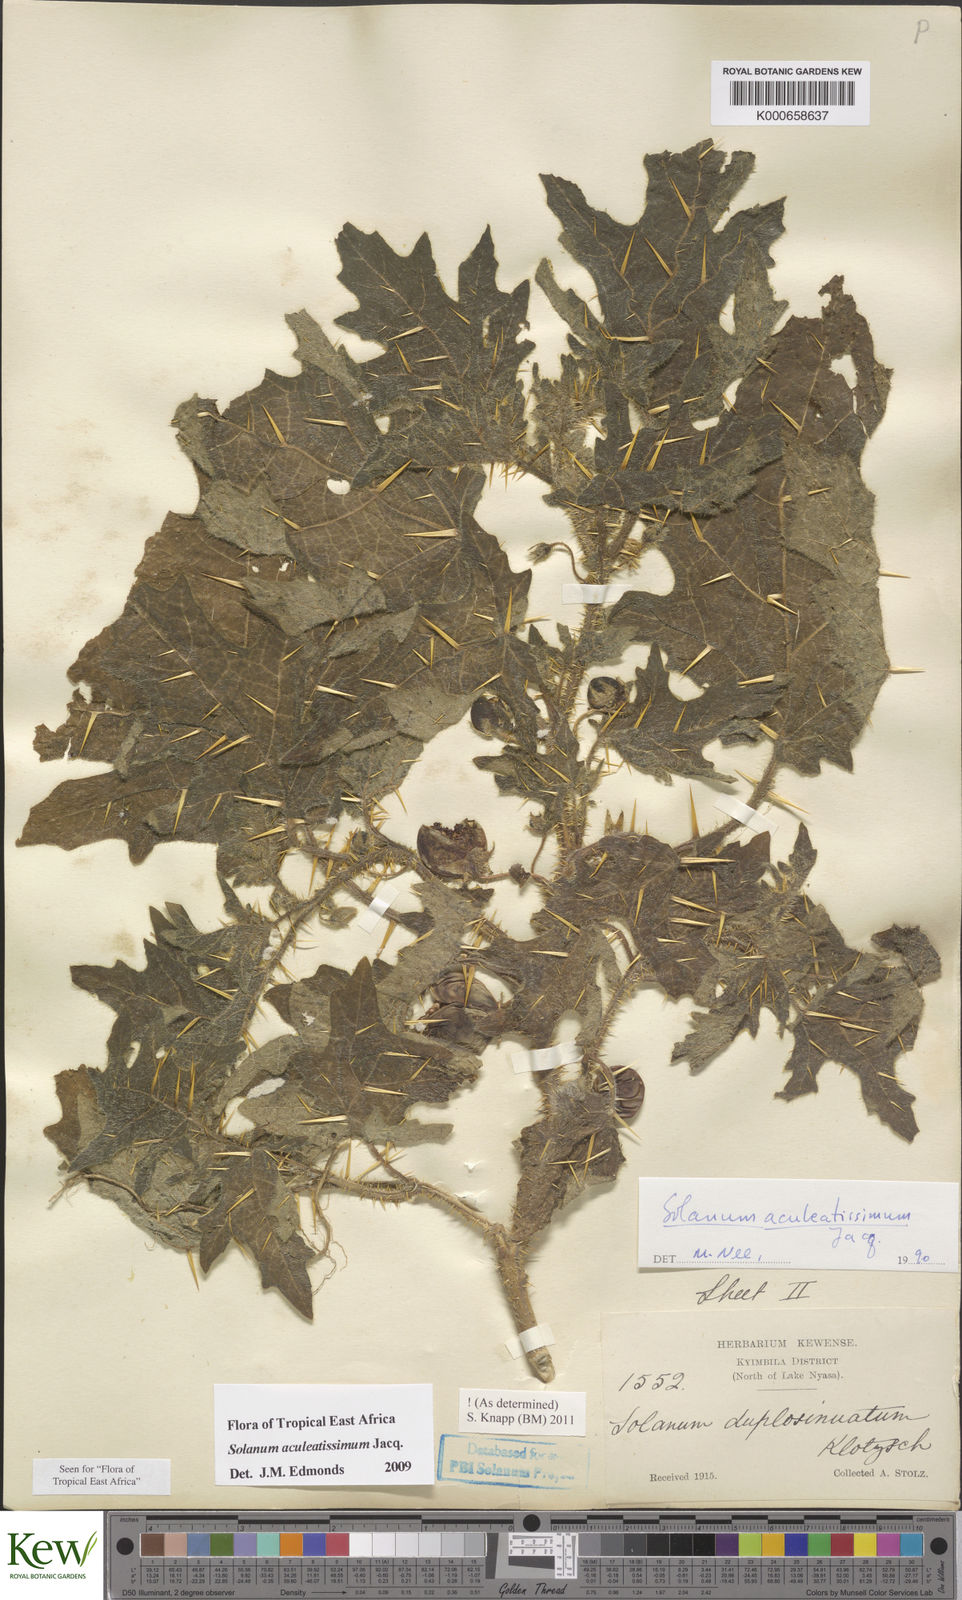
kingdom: Plantae
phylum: Tracheophyta
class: Magnoliopsida
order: Solanales
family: Solanaceae
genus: Solanum
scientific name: Solanum aculeatissimum
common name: Dutch eggplant
